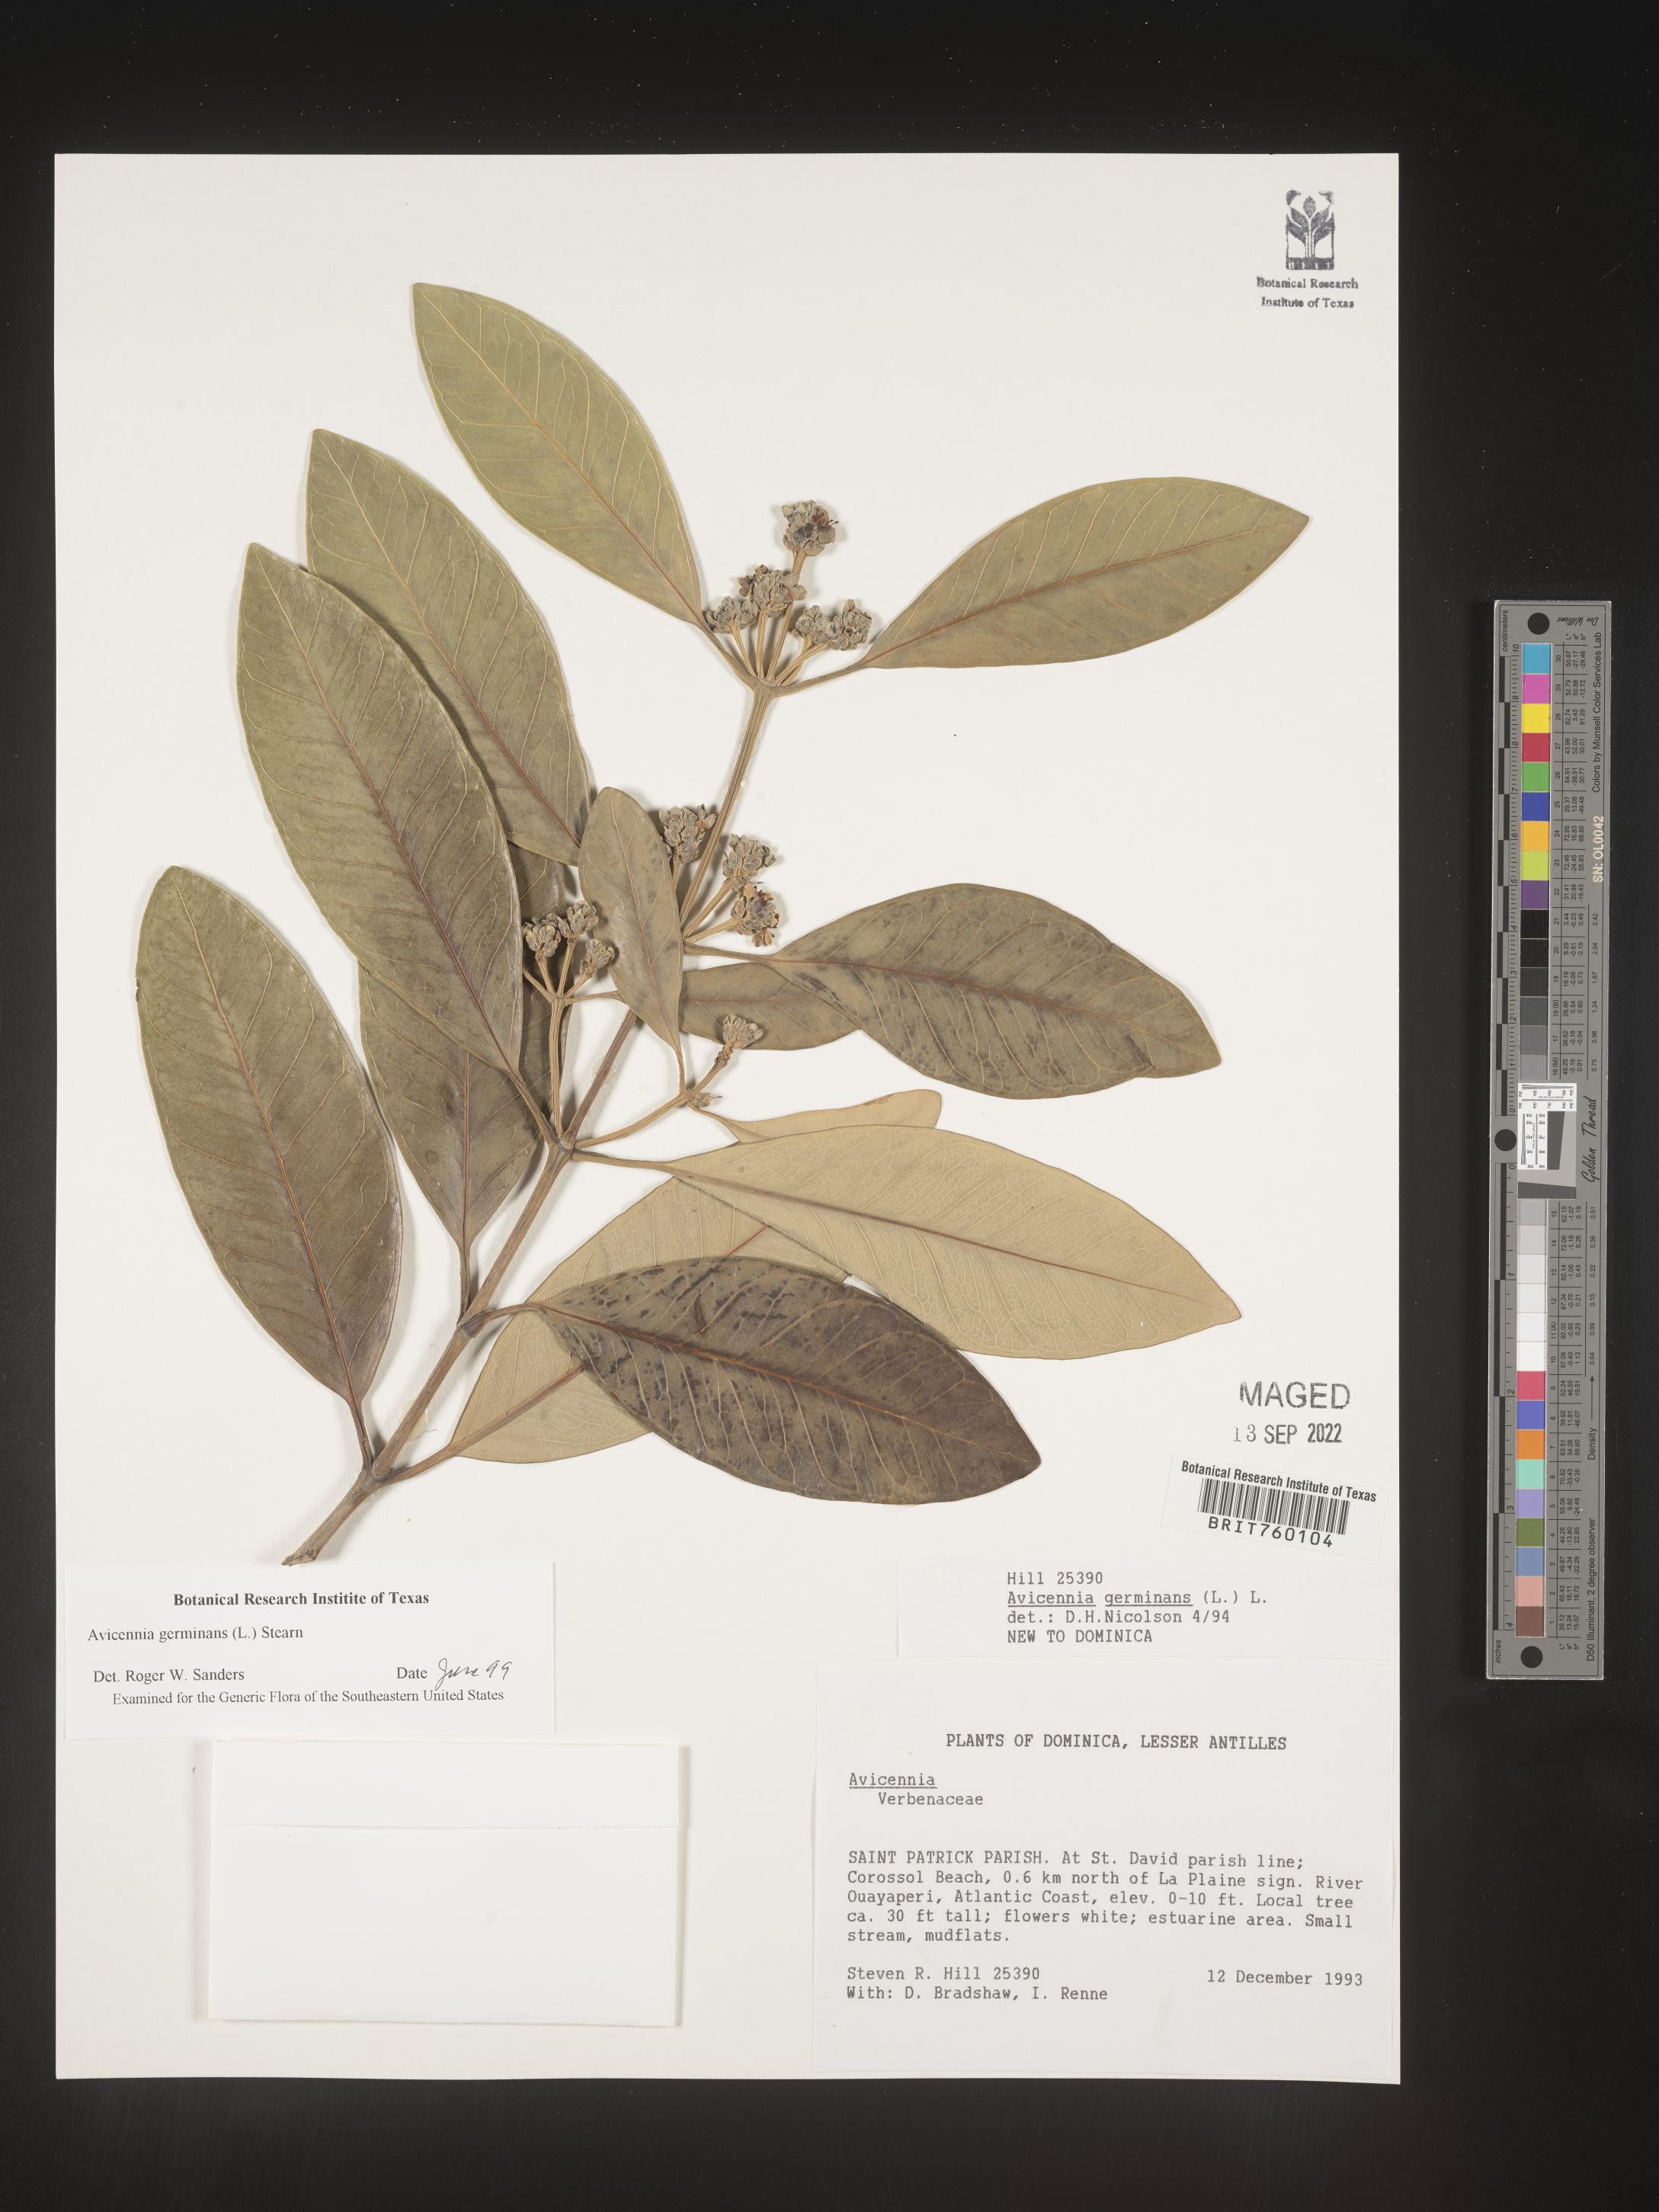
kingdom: Plantae
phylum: Tracheophyta
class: Magnoliopsida
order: Lamiales
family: Acanthaceae
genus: Avicennia
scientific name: Avicennia
